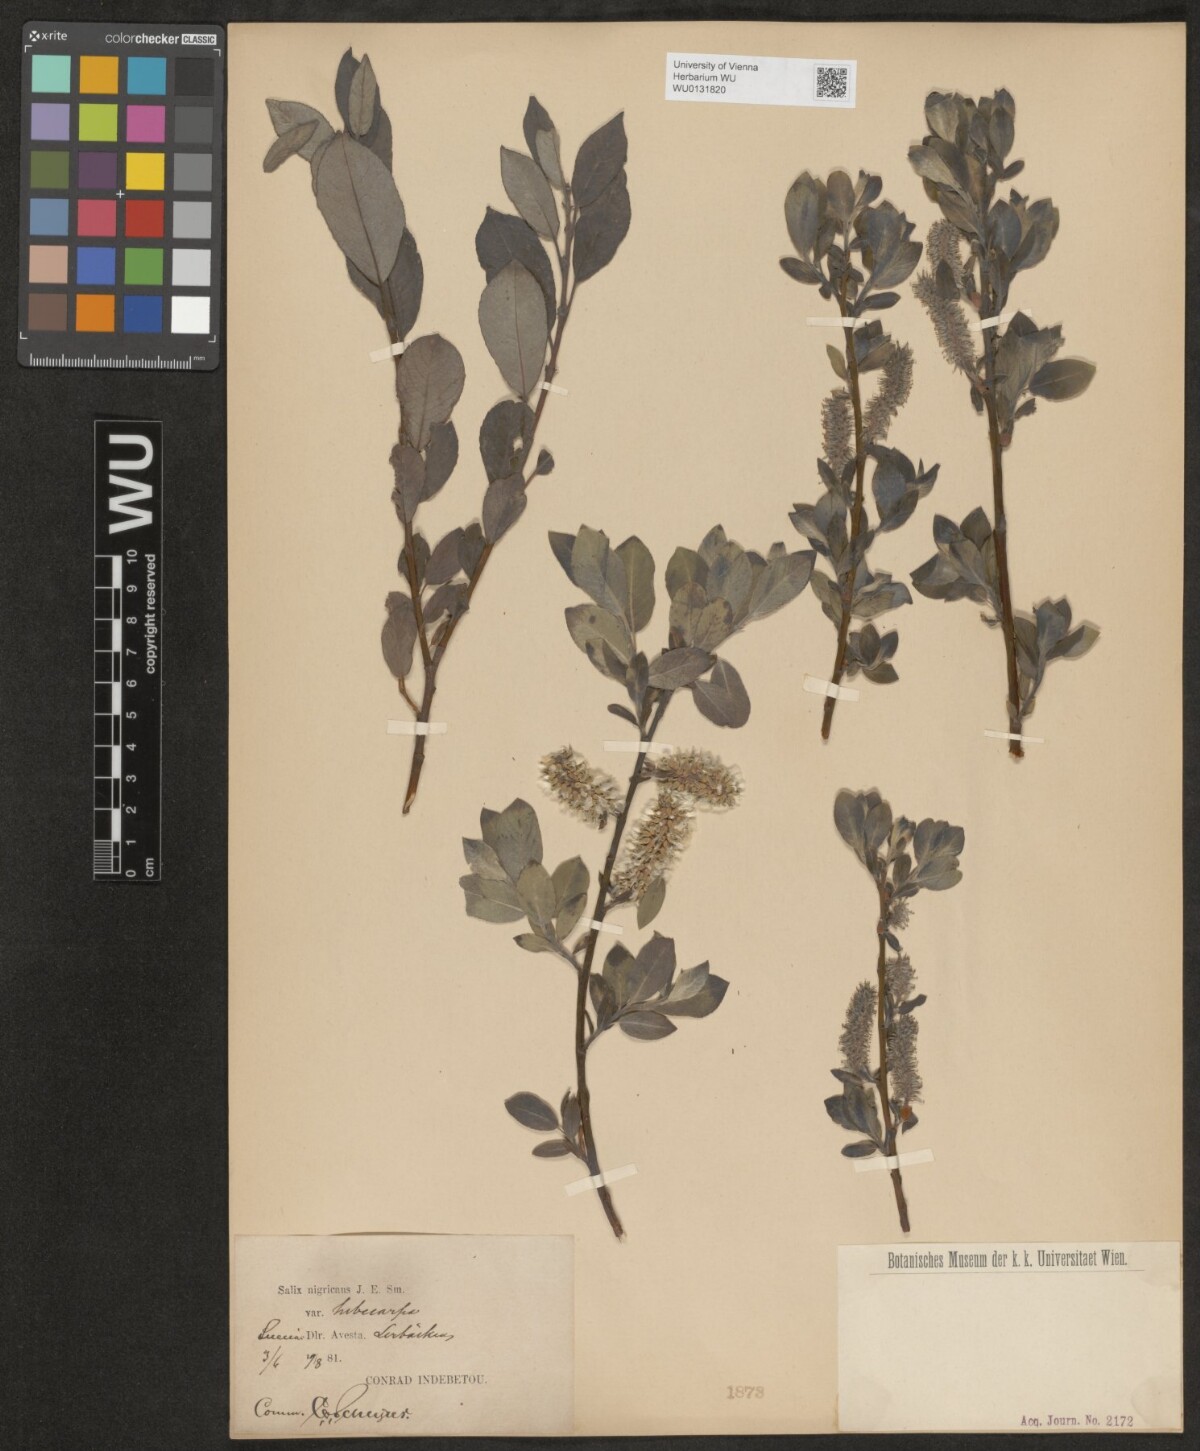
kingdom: Plantae
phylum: Tracheophyta
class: Magnoliopsida
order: Malpighiales
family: Salicaceae
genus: Salix
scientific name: Salix myrsinifolia
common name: Dark-leaved willow
